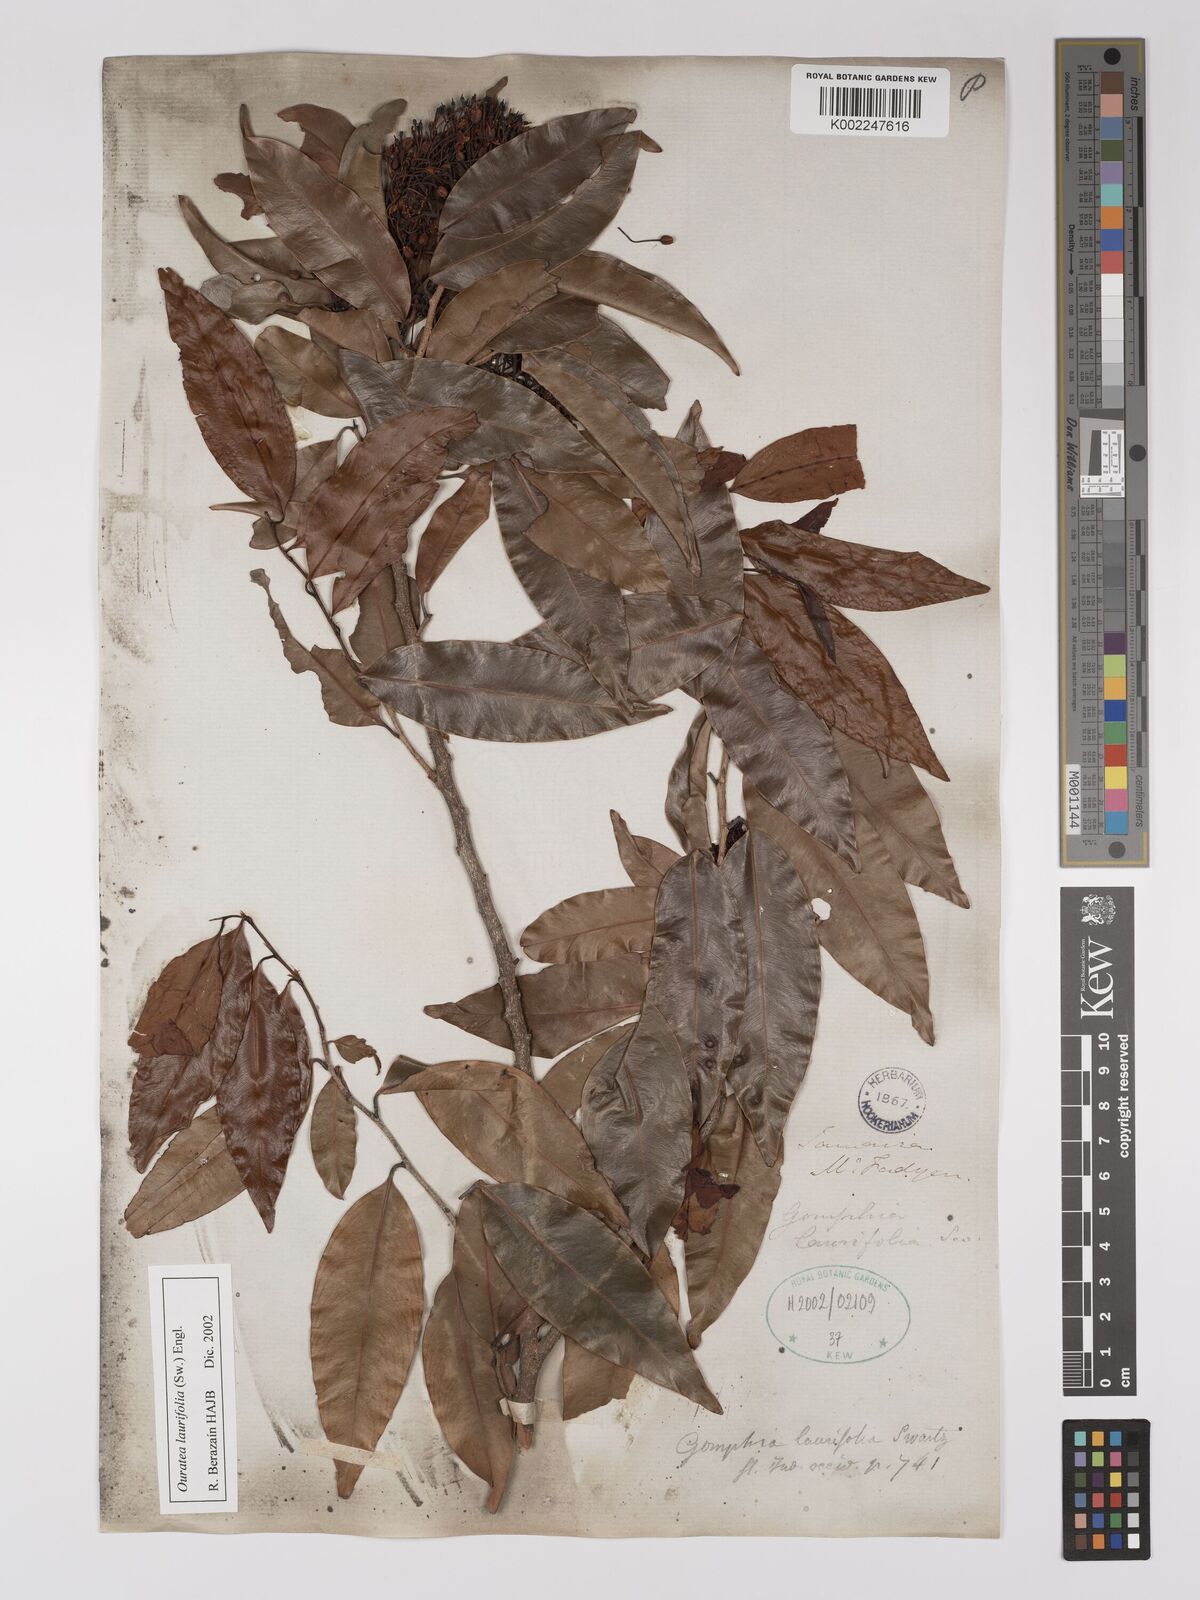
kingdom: Plantae
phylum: Tracheophyta
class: Magnoliopsida
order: Malpighiales
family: Ochnaceae
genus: Ouratea
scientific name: Ouratea laurifolia
